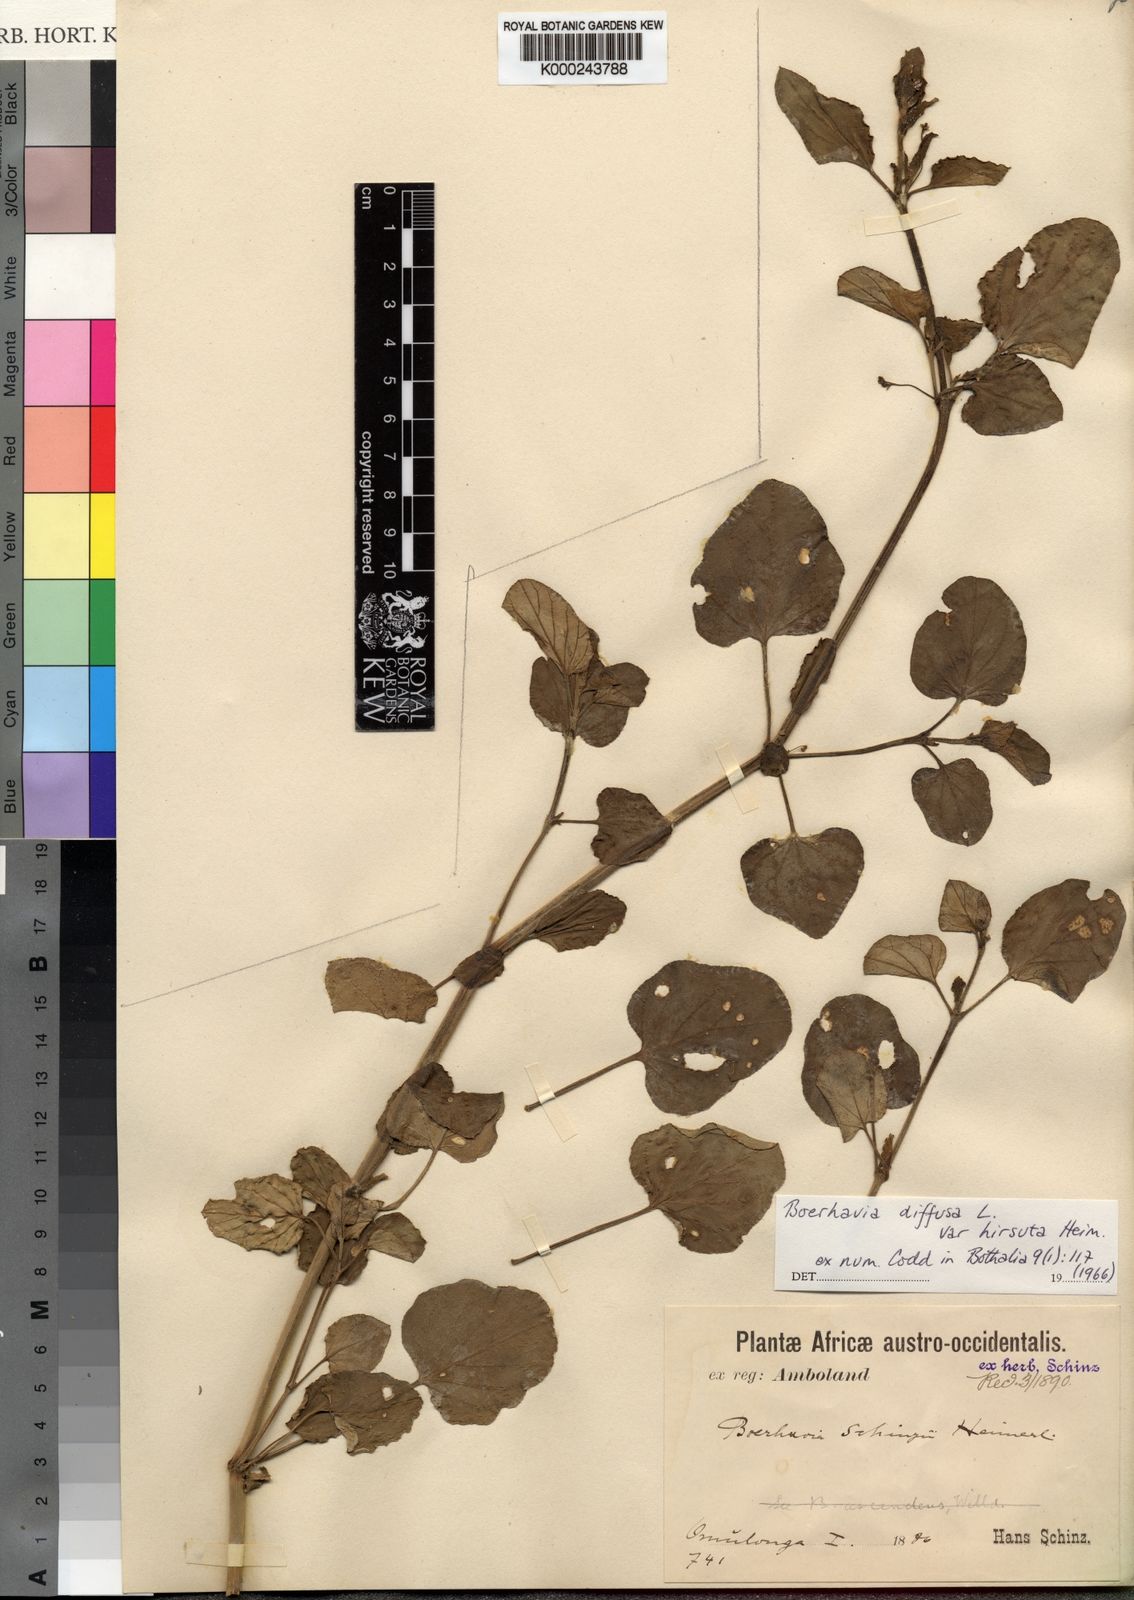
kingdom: Plantae
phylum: Tracheophyta
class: Magnoliopsida
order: Caryophyllales
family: Nyctaginaceae
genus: Boerhavia
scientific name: Boerhavia coccinea
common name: Scarlet spiderling
